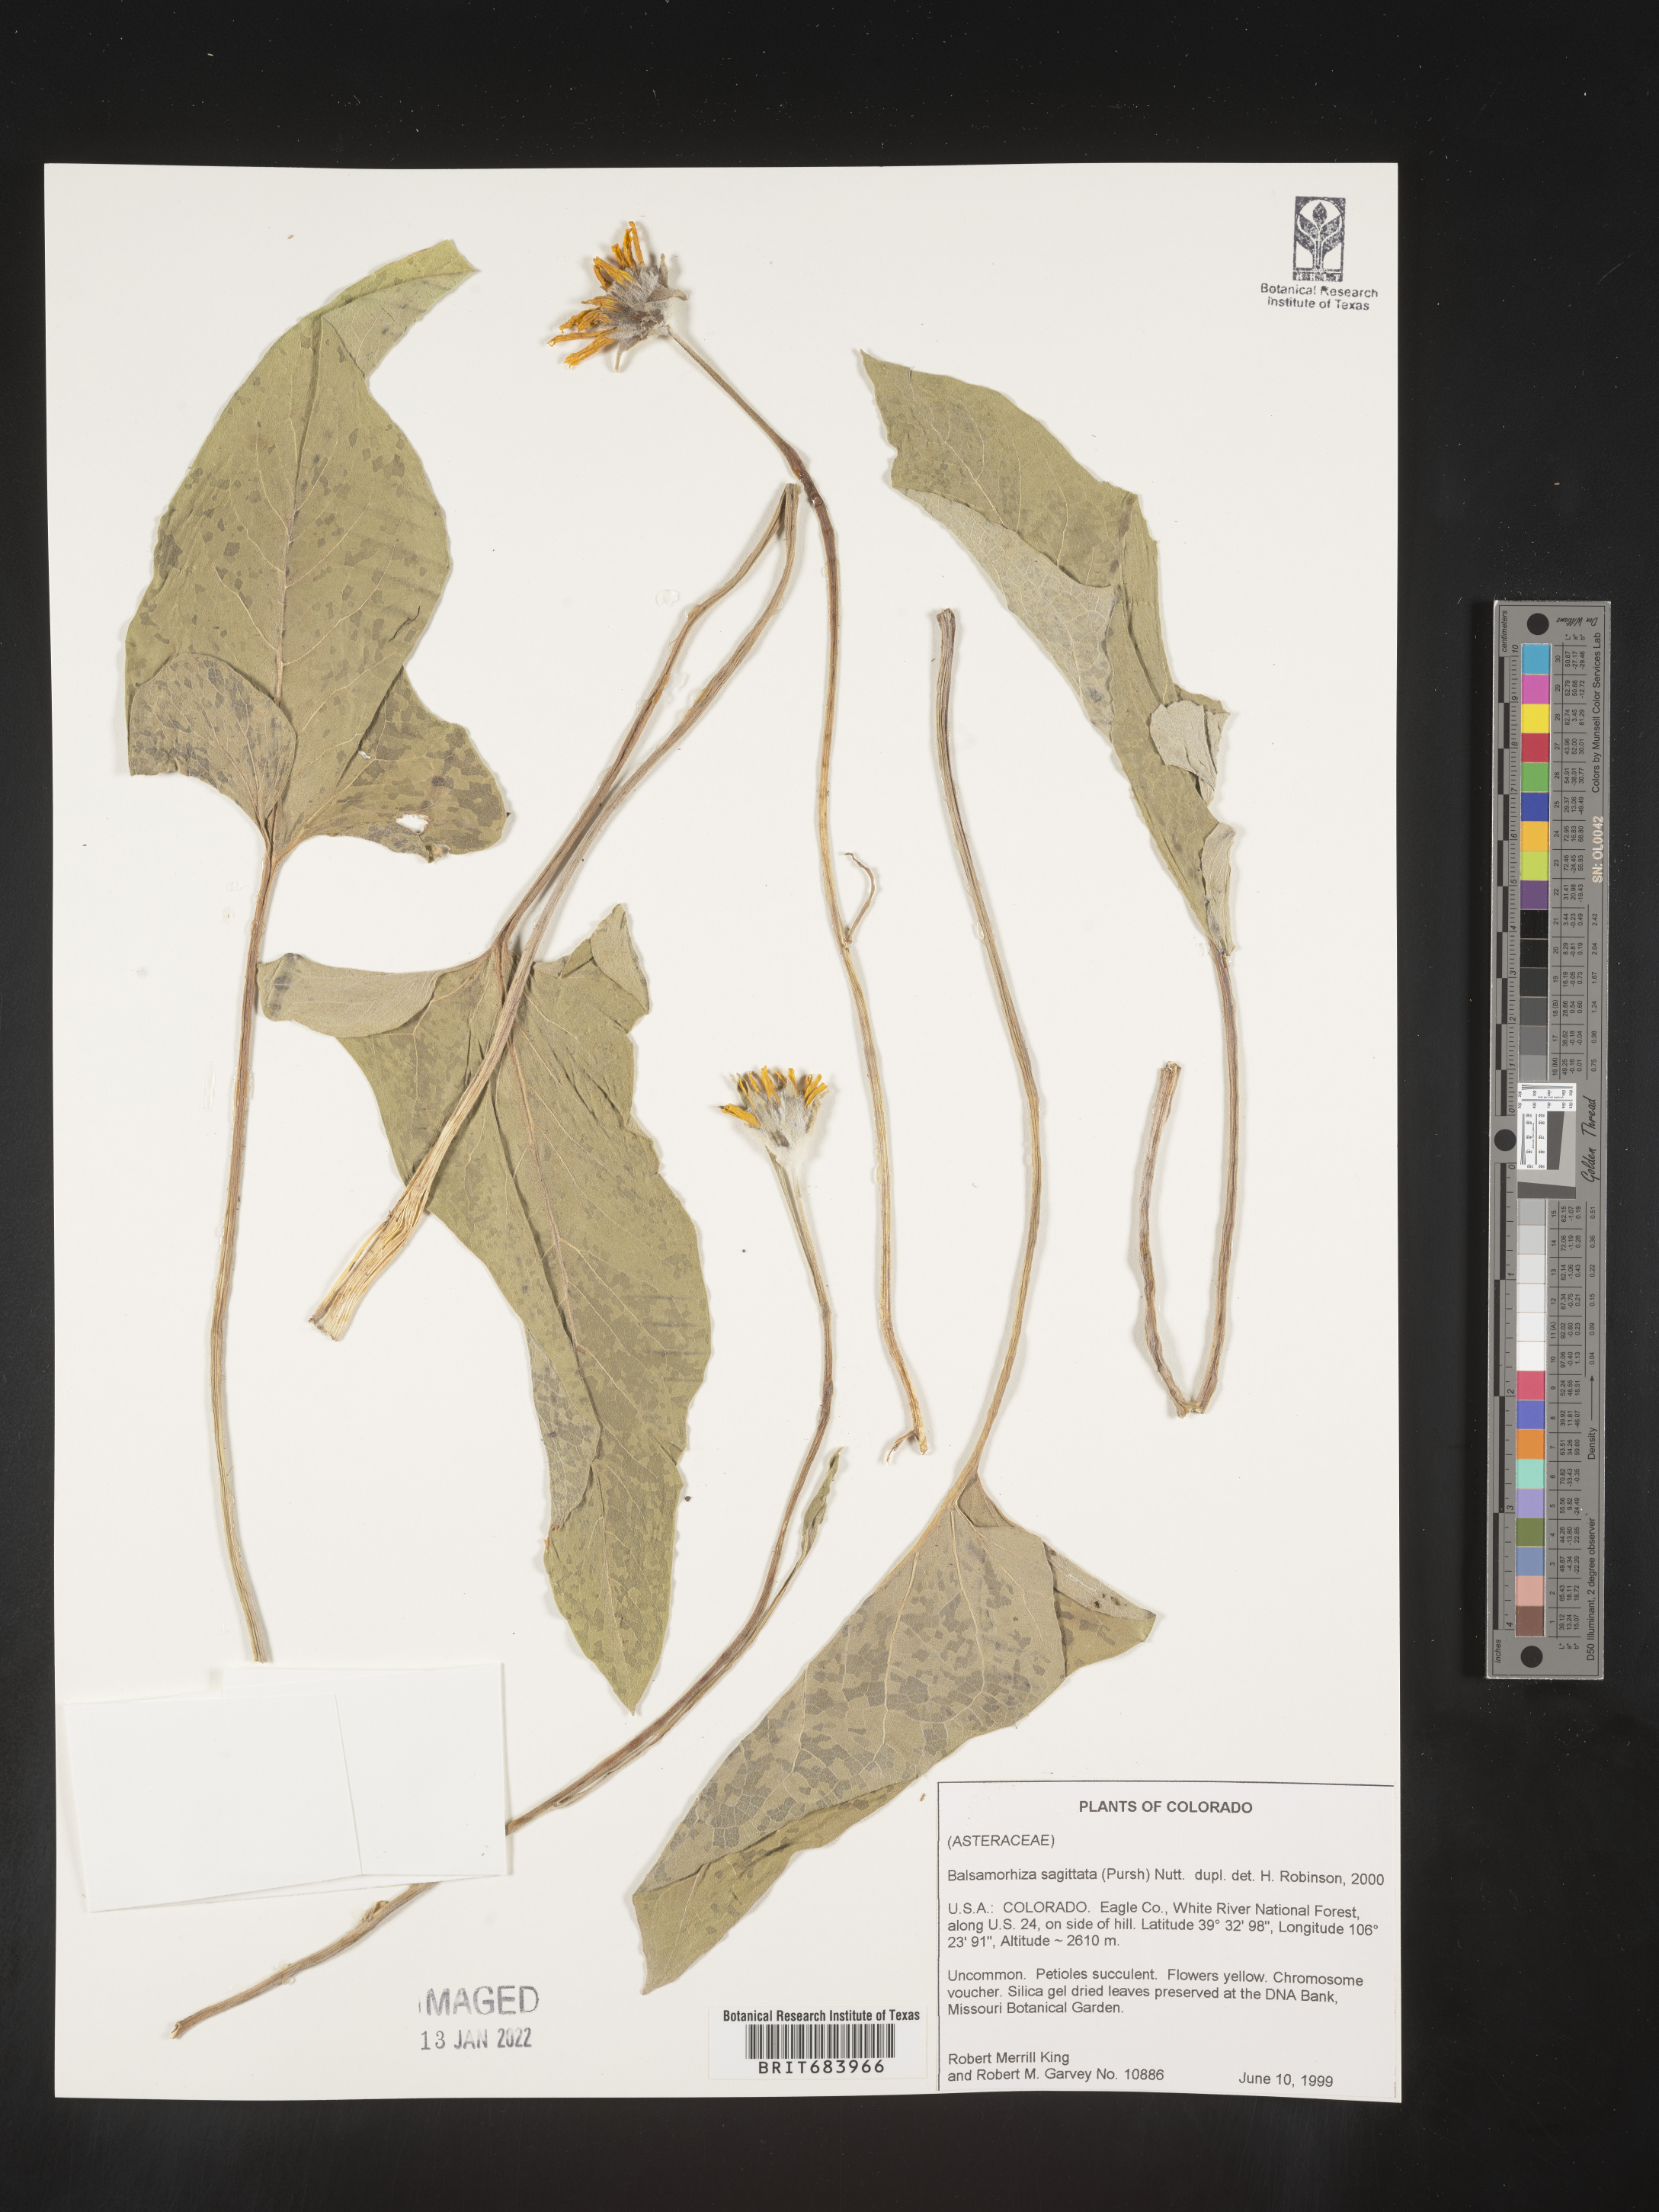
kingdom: Plantae
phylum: Tracheophyta
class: Magnoliopsida
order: Asterales
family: Asteraceae
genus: Wyethia
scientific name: Wyethia sagittata
